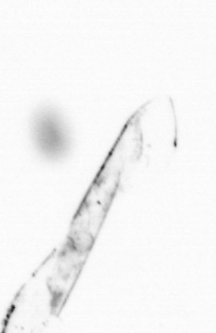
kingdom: Chromista
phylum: Ochrophyta
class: Bacillariophyceae
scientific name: Bacillariophyceae
